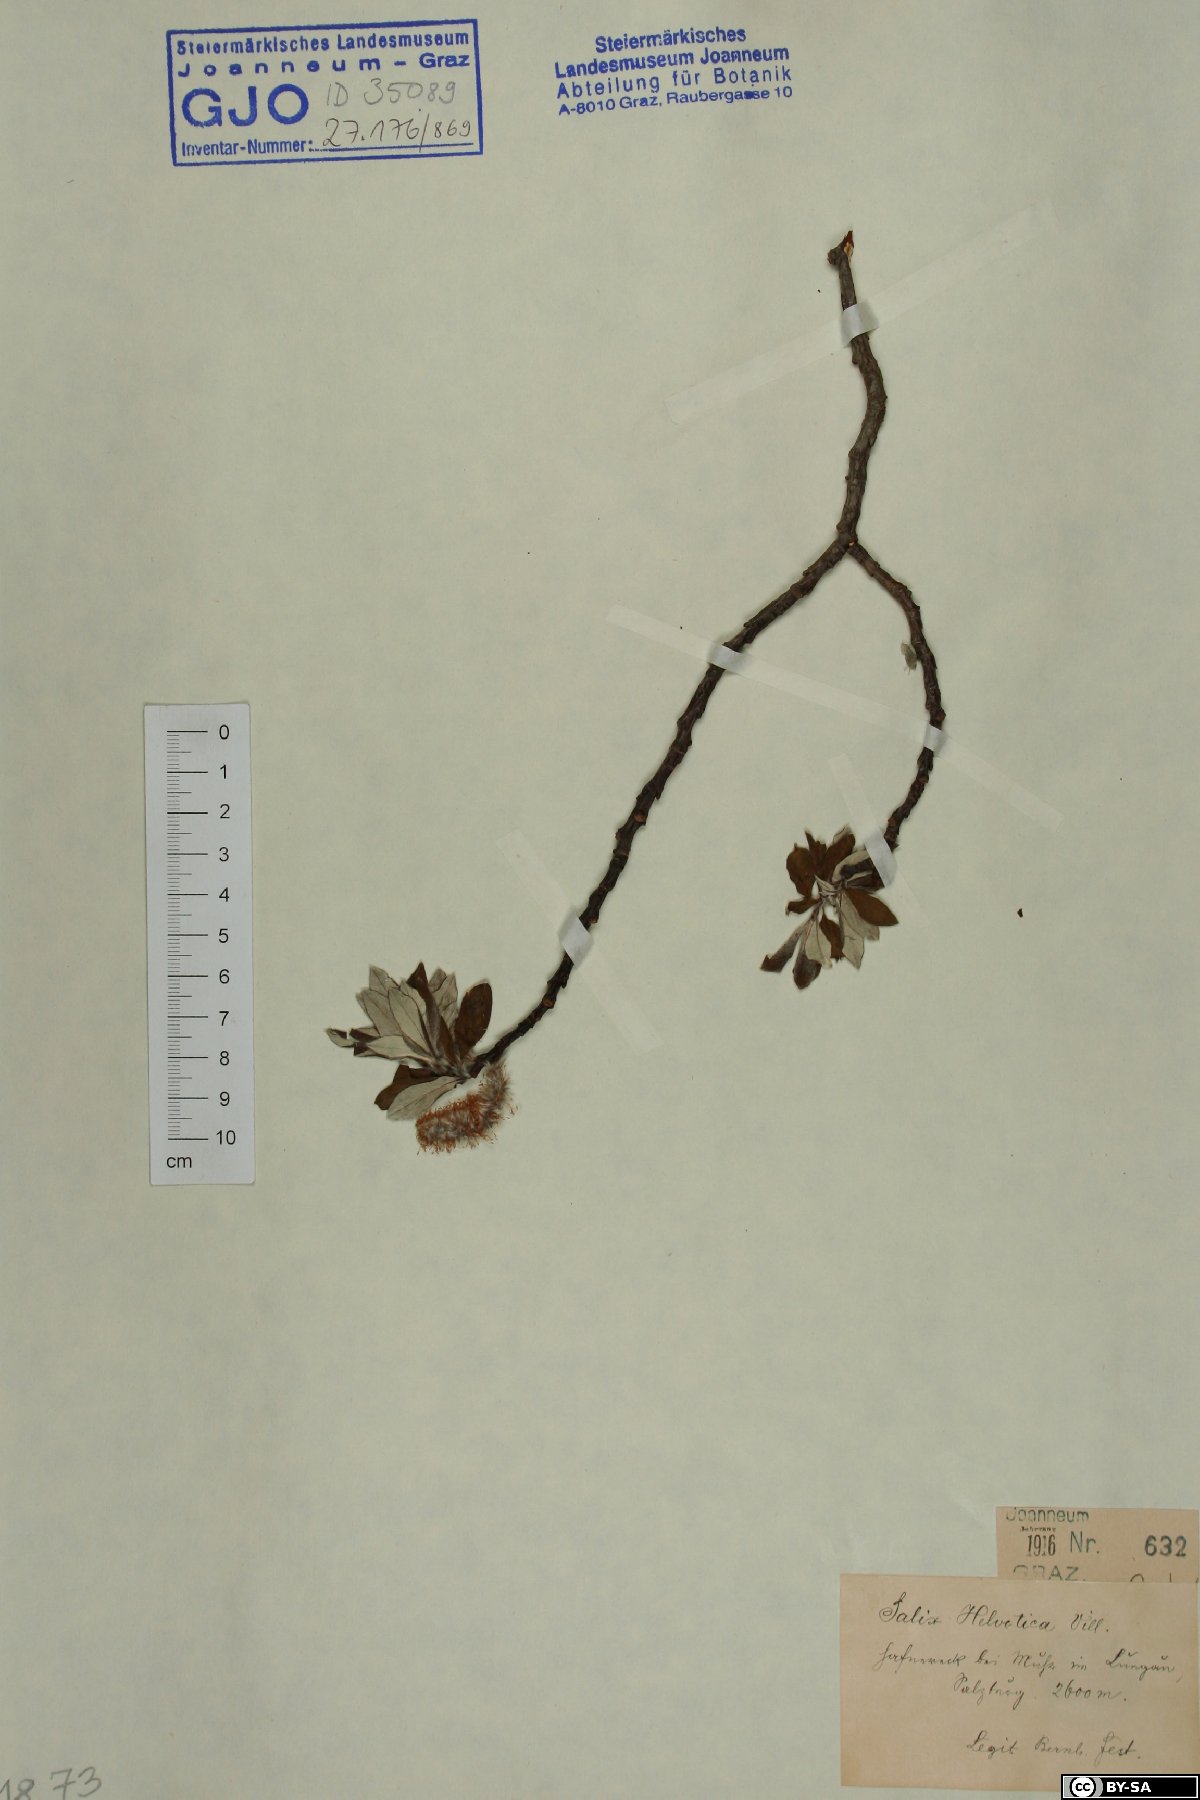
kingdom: Plantae
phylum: Tracheophyta
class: Magnoliopsida
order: Malpighiales
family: Salicaceae
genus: Salix
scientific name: Salix helvetica
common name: Swiss willow
